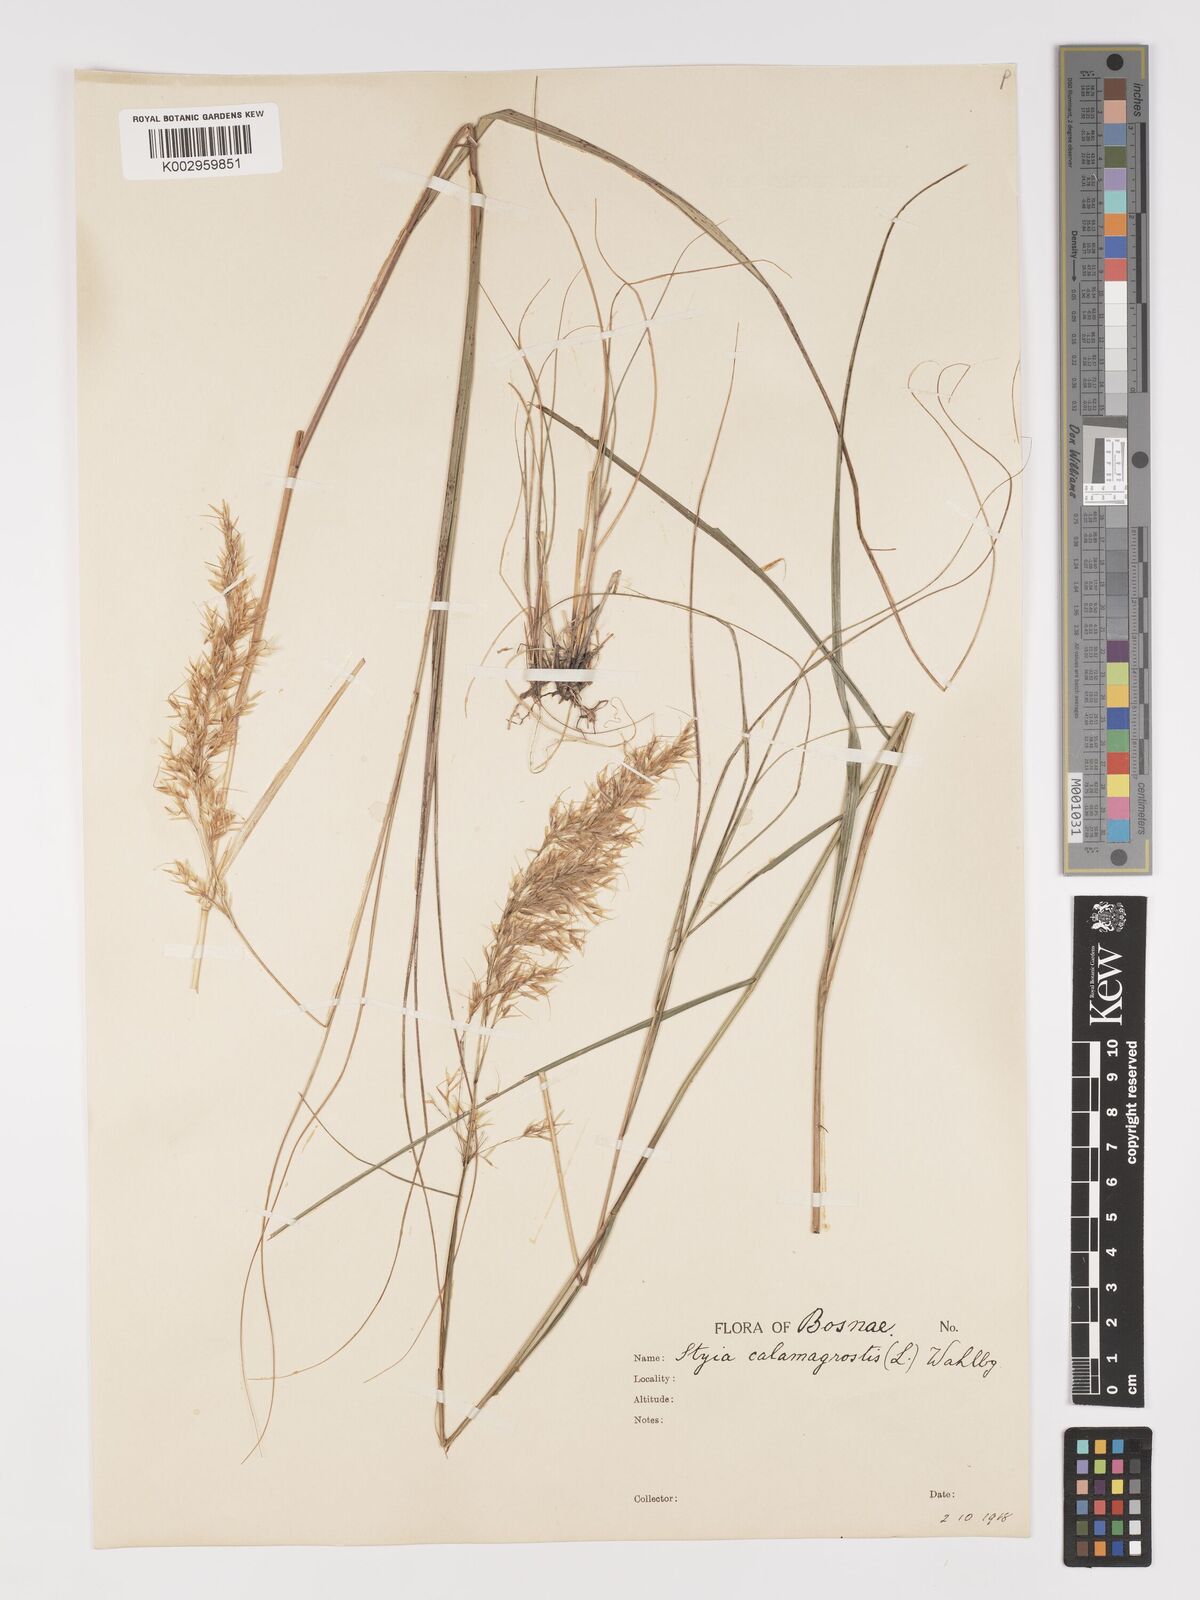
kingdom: Plantae
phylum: Tracheophyta
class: Liliopsida
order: Poales
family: Poaceae
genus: Achnatherum
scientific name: Achnatherum calamagrostis
